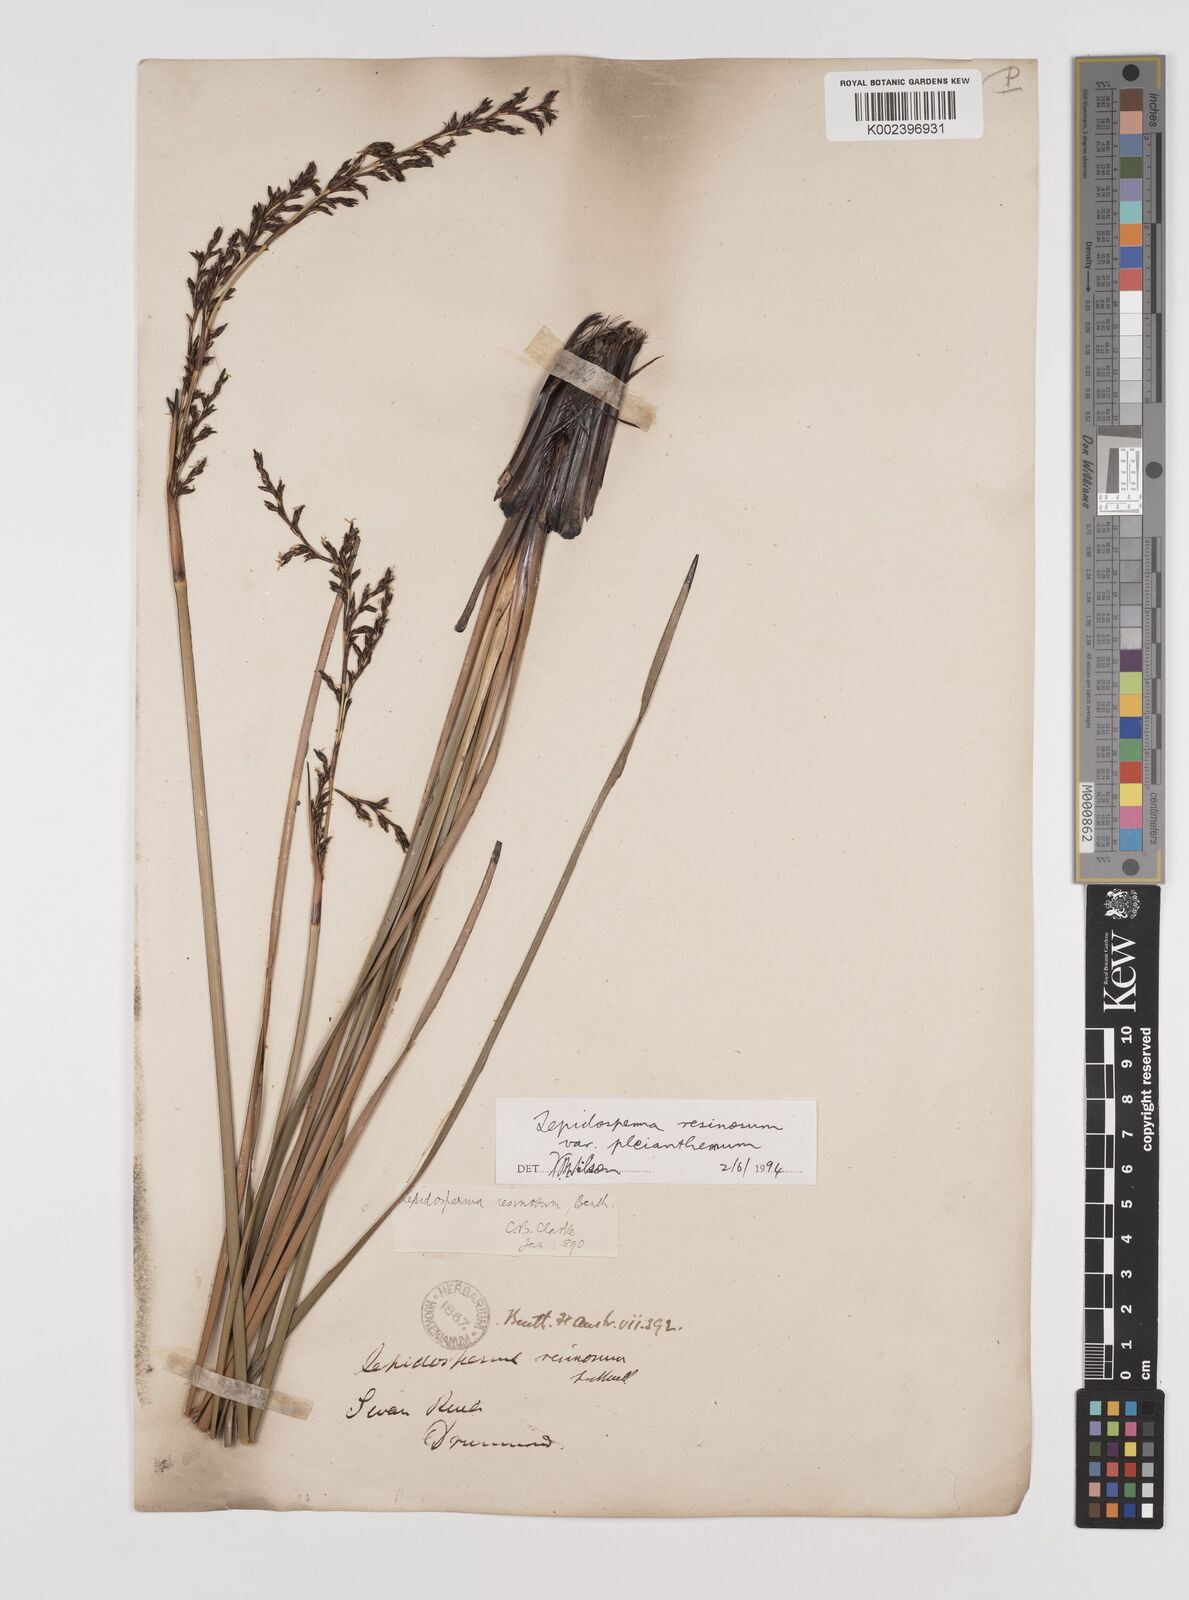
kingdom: Plantae
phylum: Tracheophyta
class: Liliopsida
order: Poales
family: Cyperaceae
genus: Lepidosperma
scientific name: Lepidosperma resinosum
